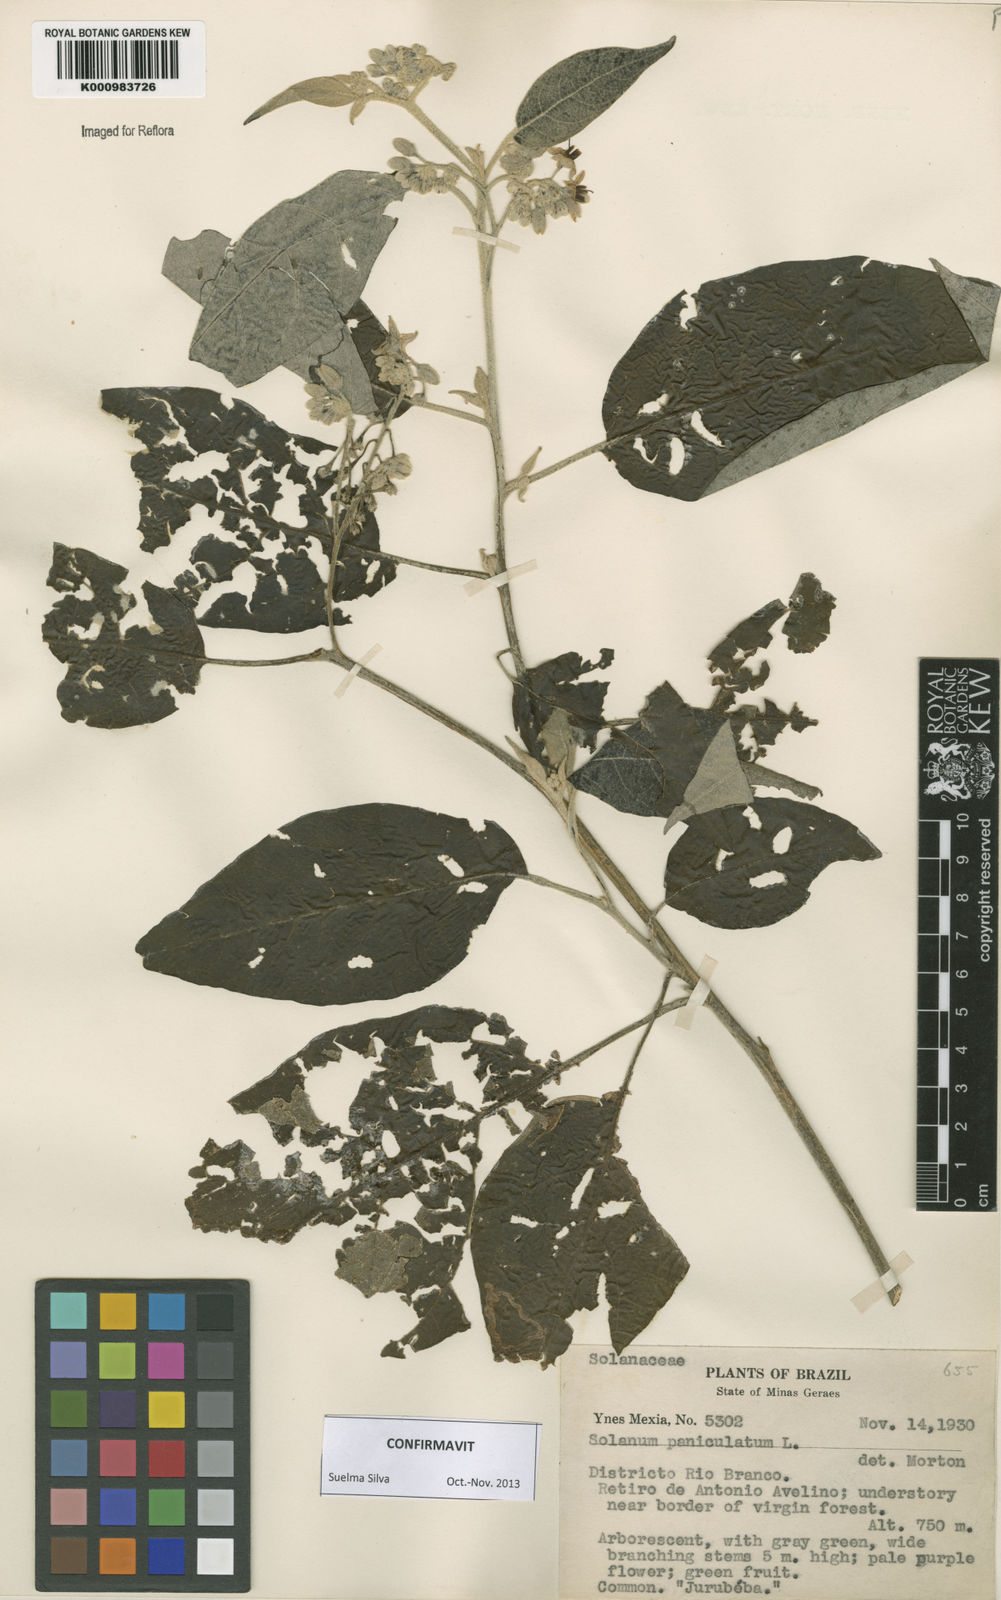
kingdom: Plantae
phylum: Tracheophyta
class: Magnoliopsida
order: Solanales
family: Solanaceae
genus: Solanum
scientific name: Solanum paniculatum
